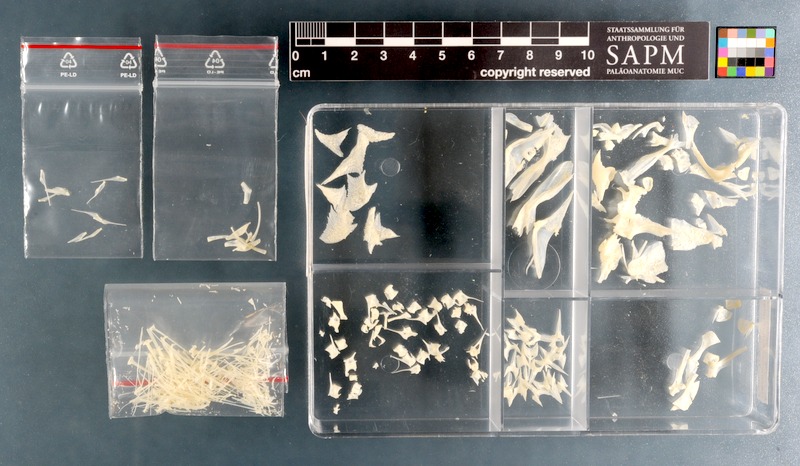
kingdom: Animalia
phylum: Chordata
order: Scorpaeniformes
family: Triglidae
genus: Chelidonichthys
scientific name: Chelidonichthys lastoviza
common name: Streaked gurnard
